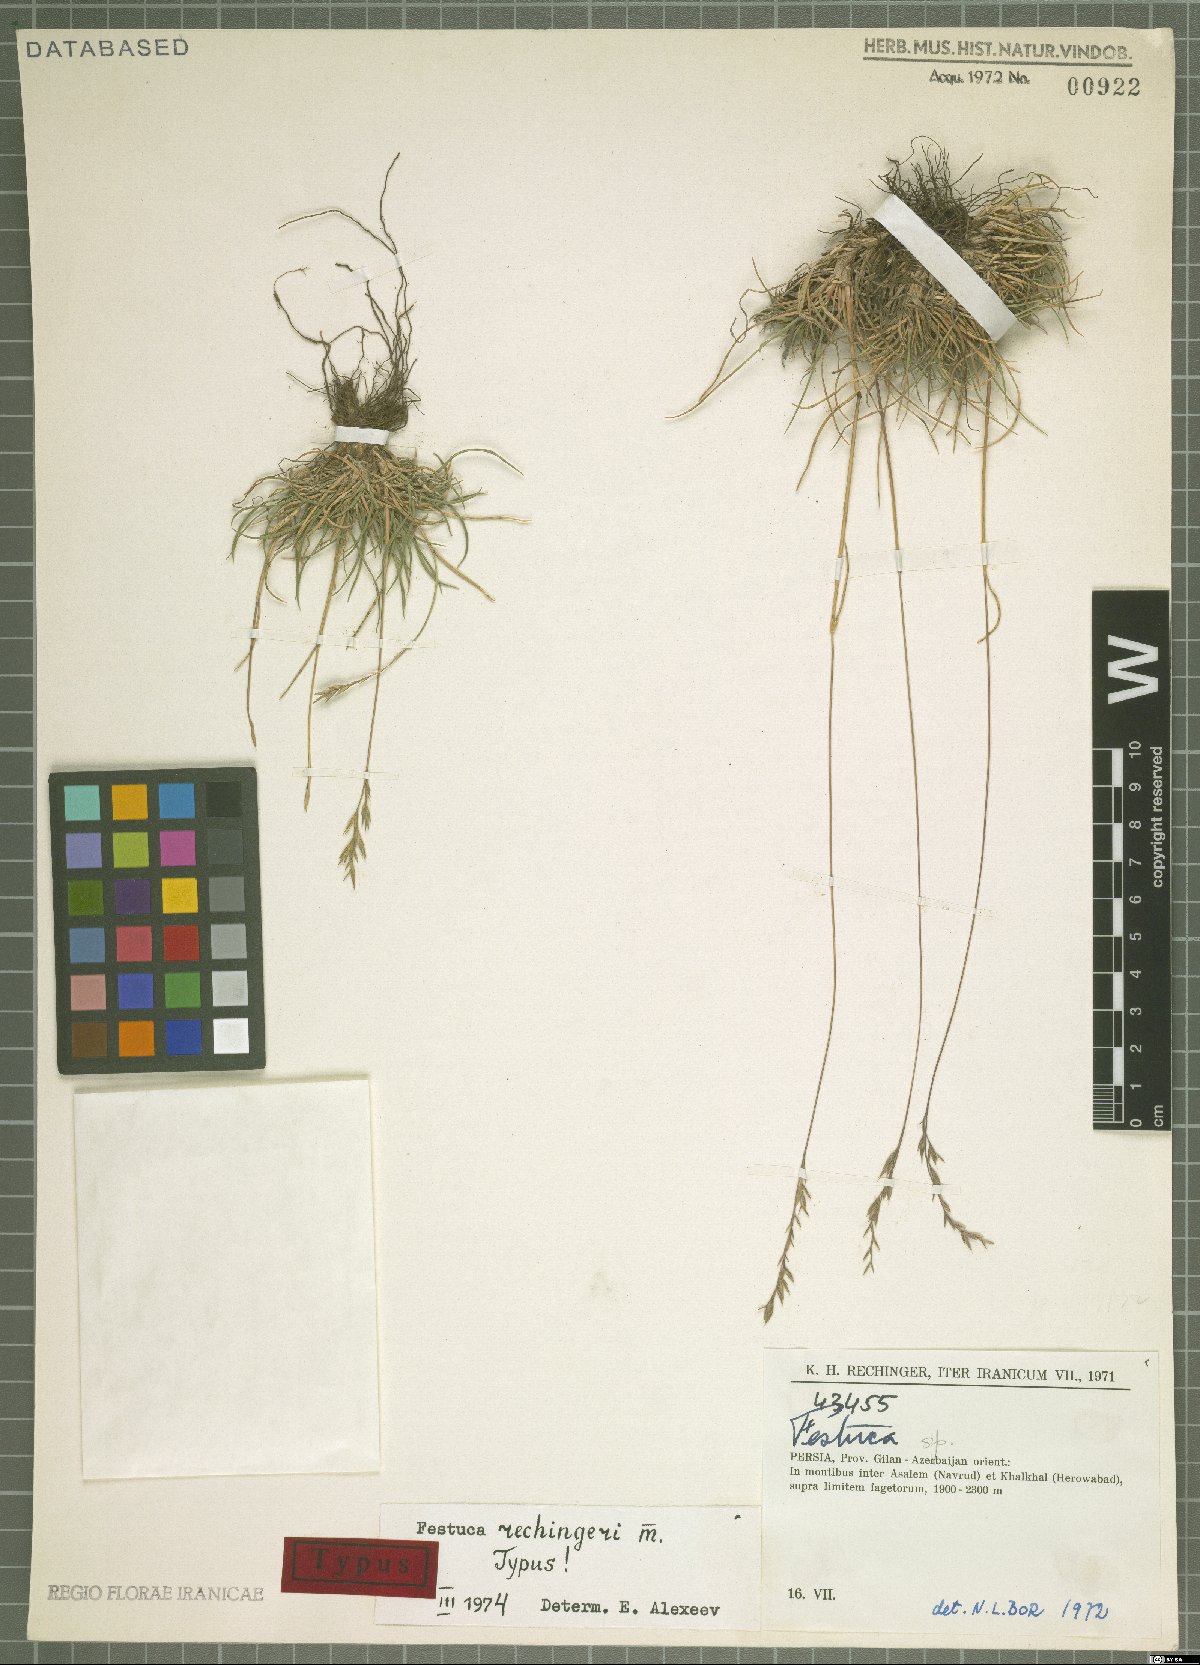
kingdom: Plantae
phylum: Tracheophyta
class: Liliopsida
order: Poales
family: Poaceae
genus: Festuca
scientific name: Festuca rechingeri
